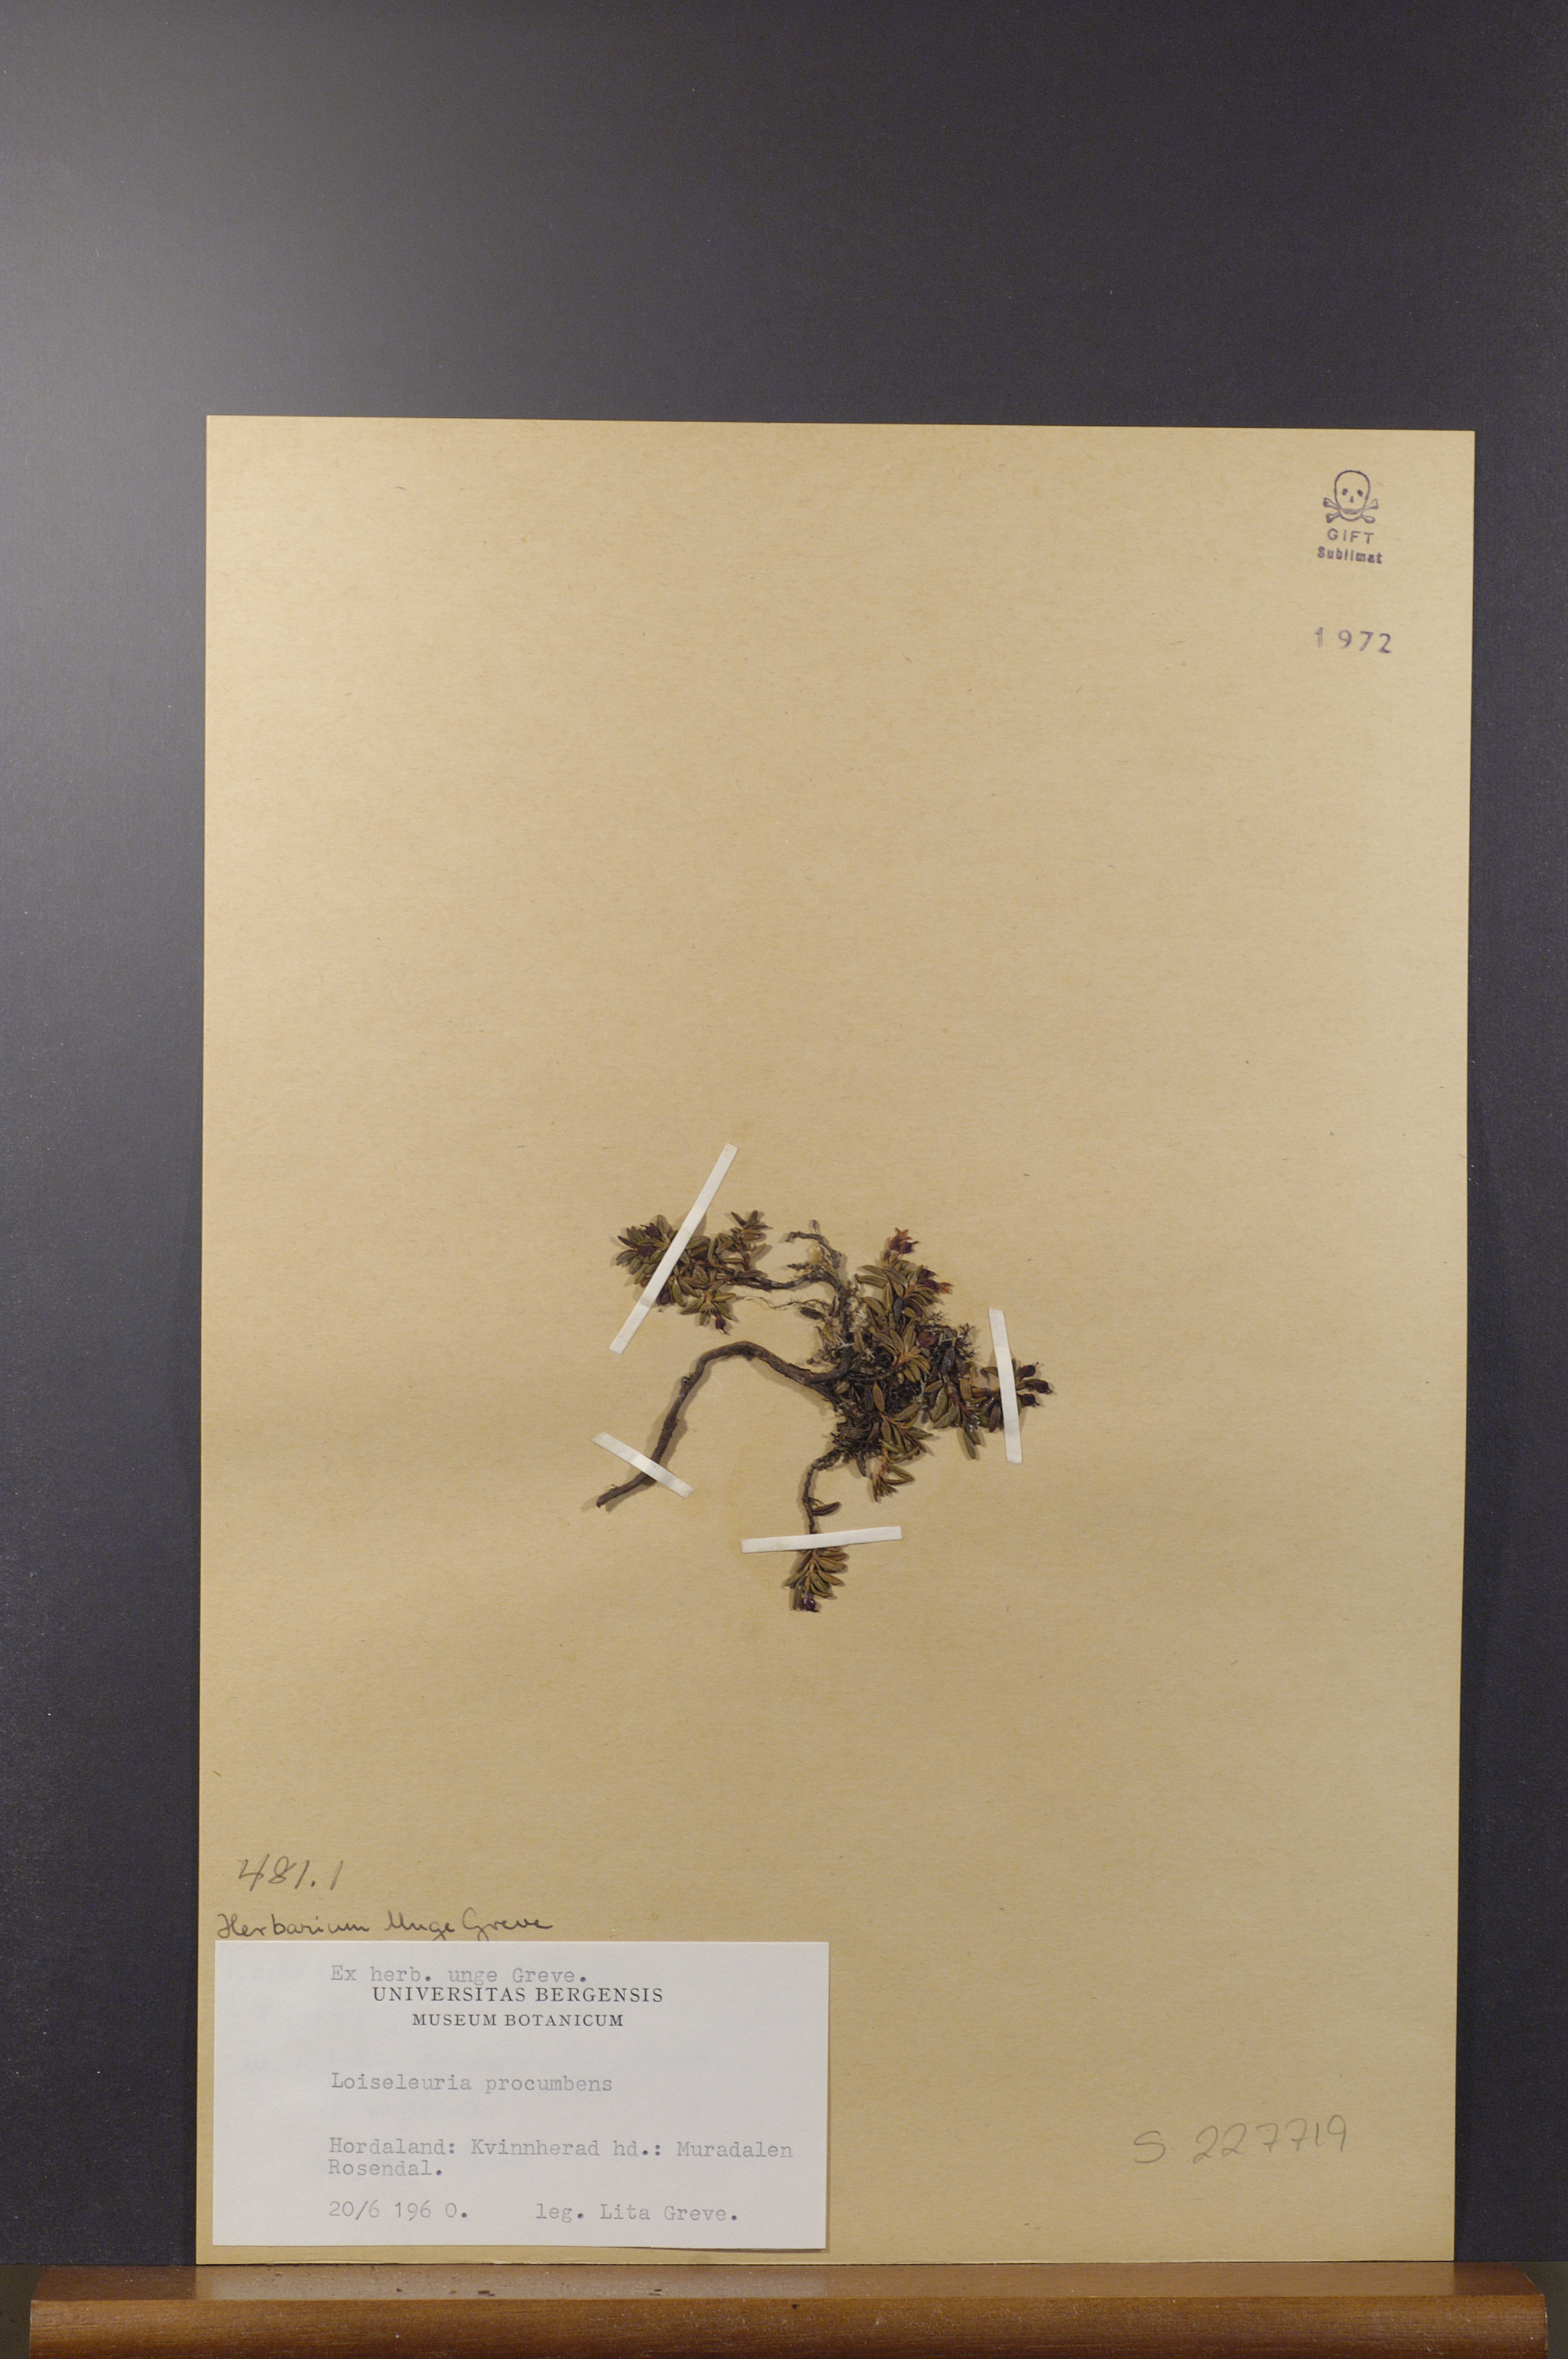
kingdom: Plantae
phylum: Tracheophyta
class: Magnoliopsida
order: Ericales
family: Ericaceae
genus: Kalmia
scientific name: Kalmia procumbens
